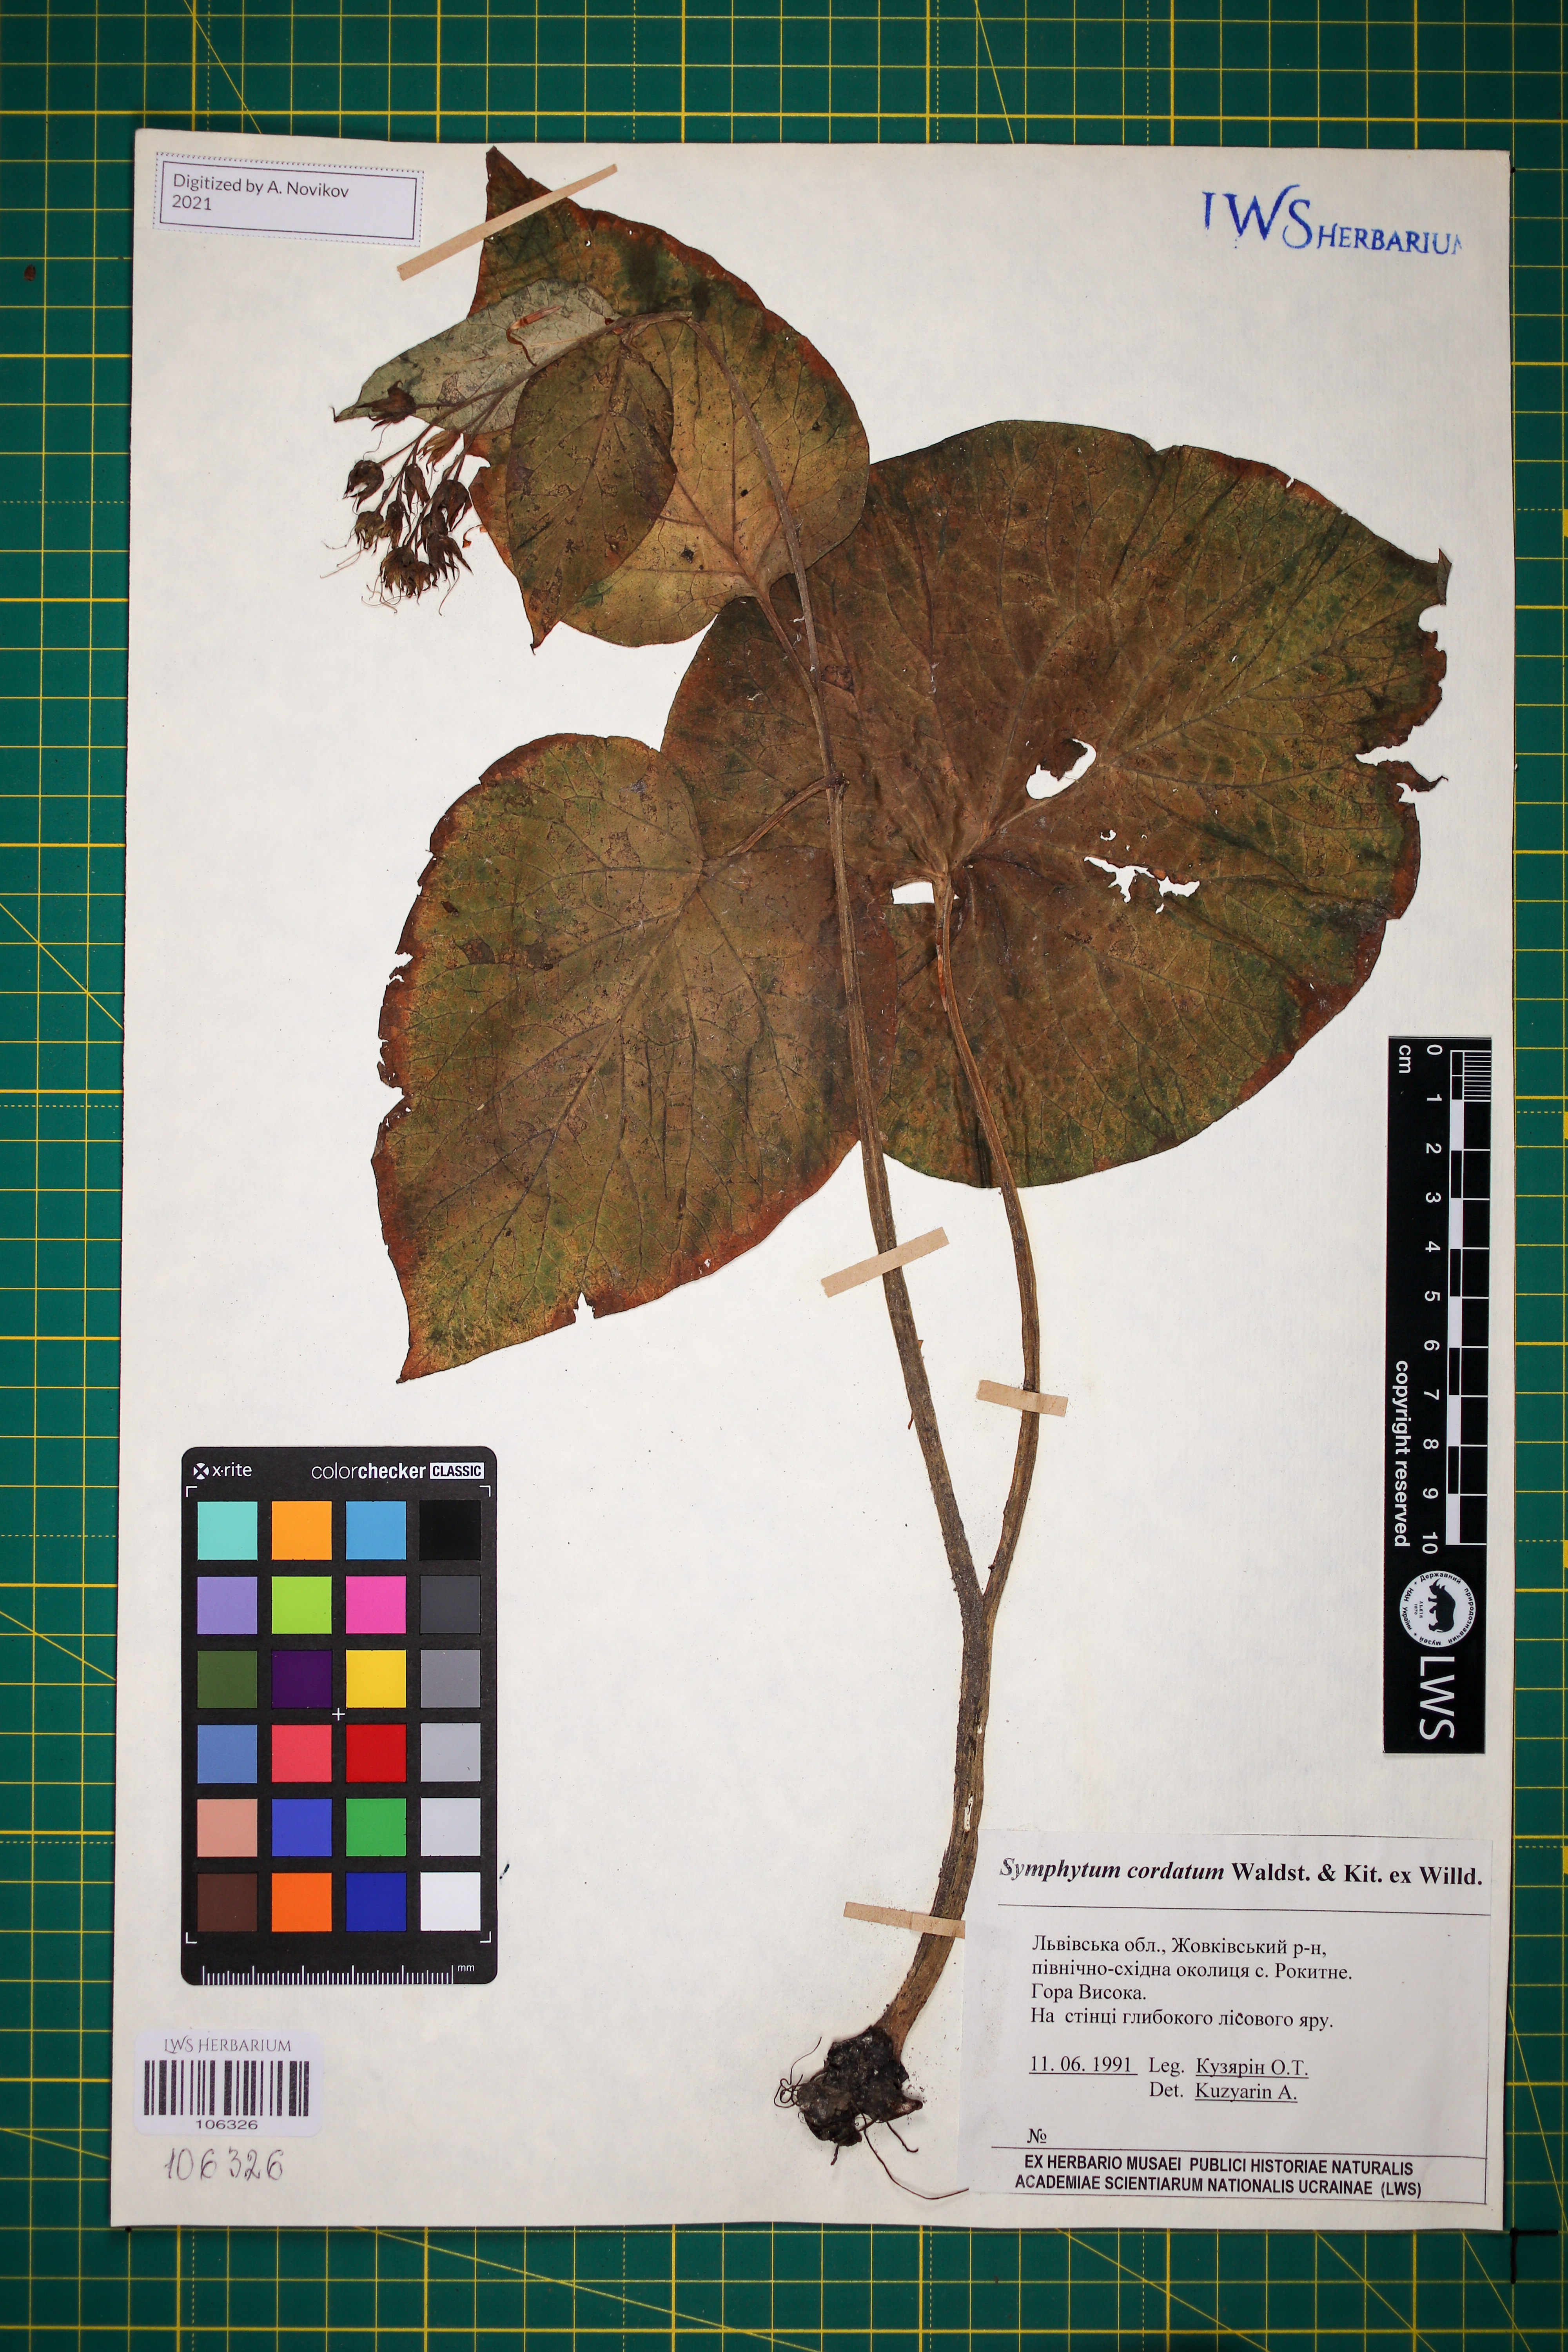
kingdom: Plantae
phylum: Tracheophyta
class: Magnoliopsida
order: Boraginales
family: Boraginaceae
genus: Symphytum
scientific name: Symphytum cordatum
